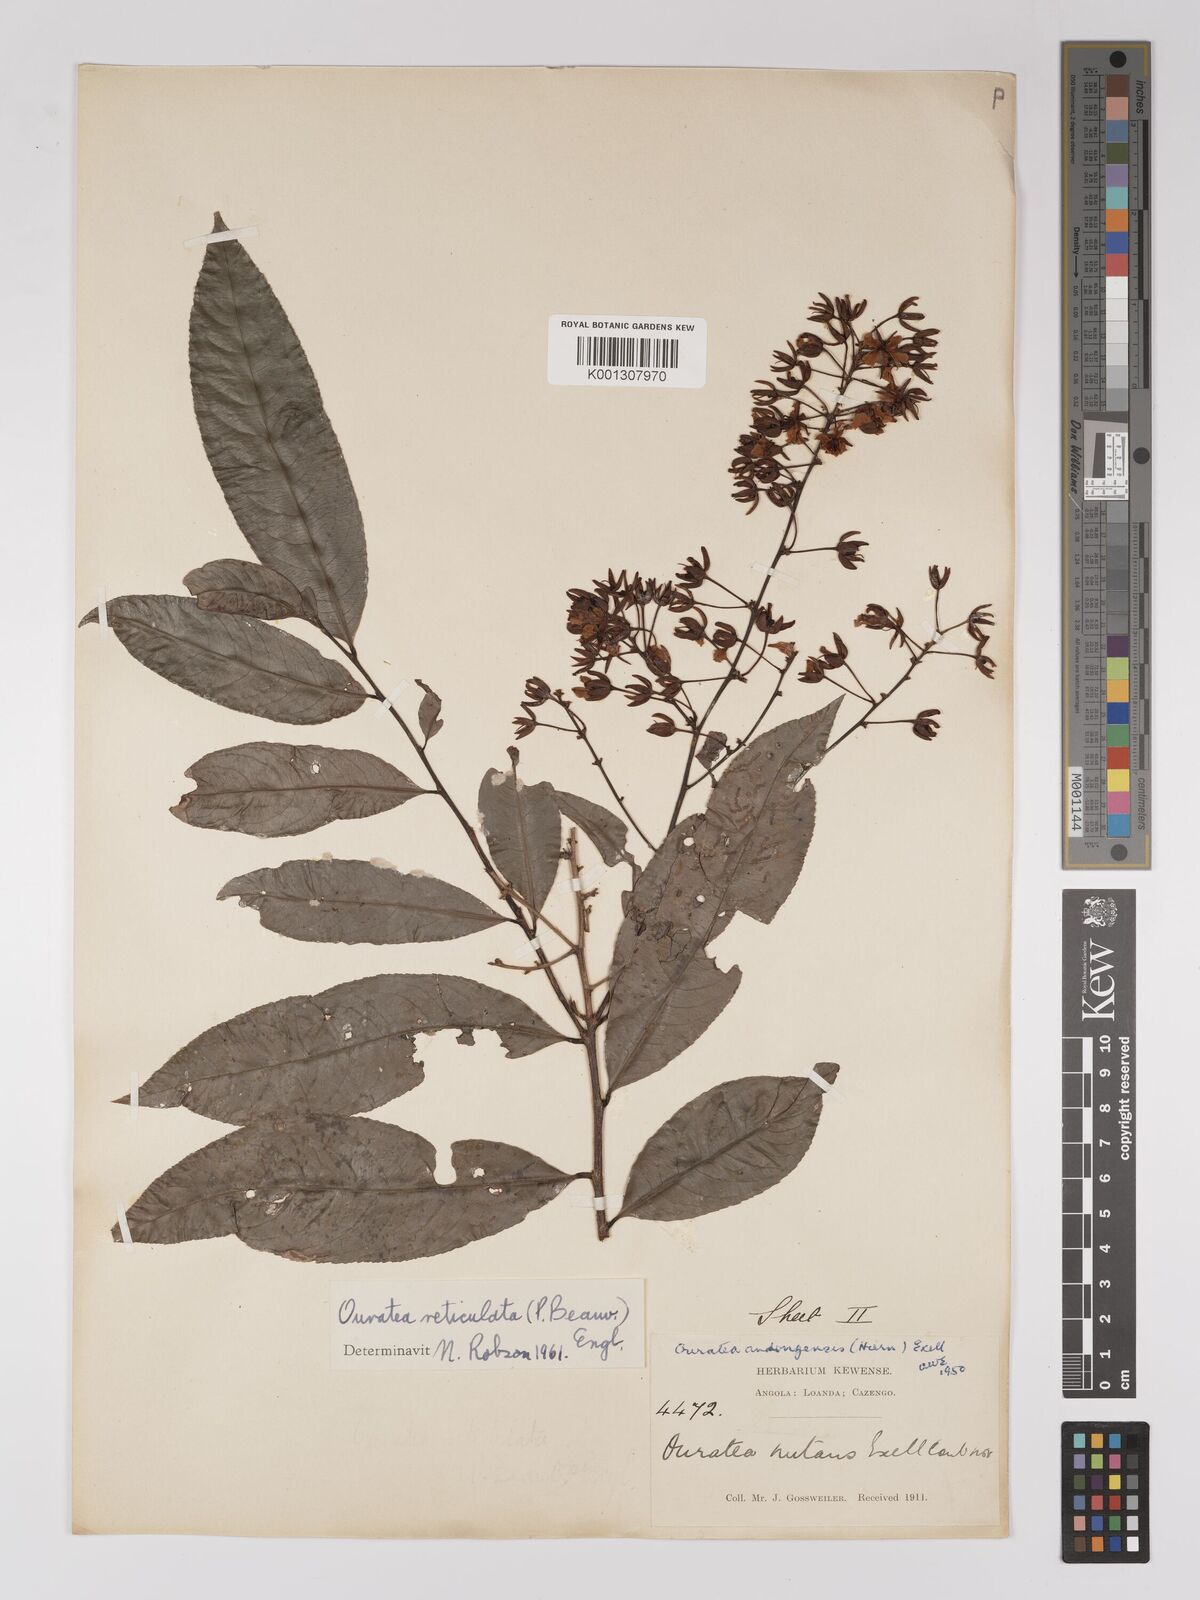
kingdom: Plantae
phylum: Tracheophyta
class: Magnoliopsida
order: Malpighiales
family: Ochnaceae
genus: Campylospermum
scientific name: Campylospermum reticulatum
